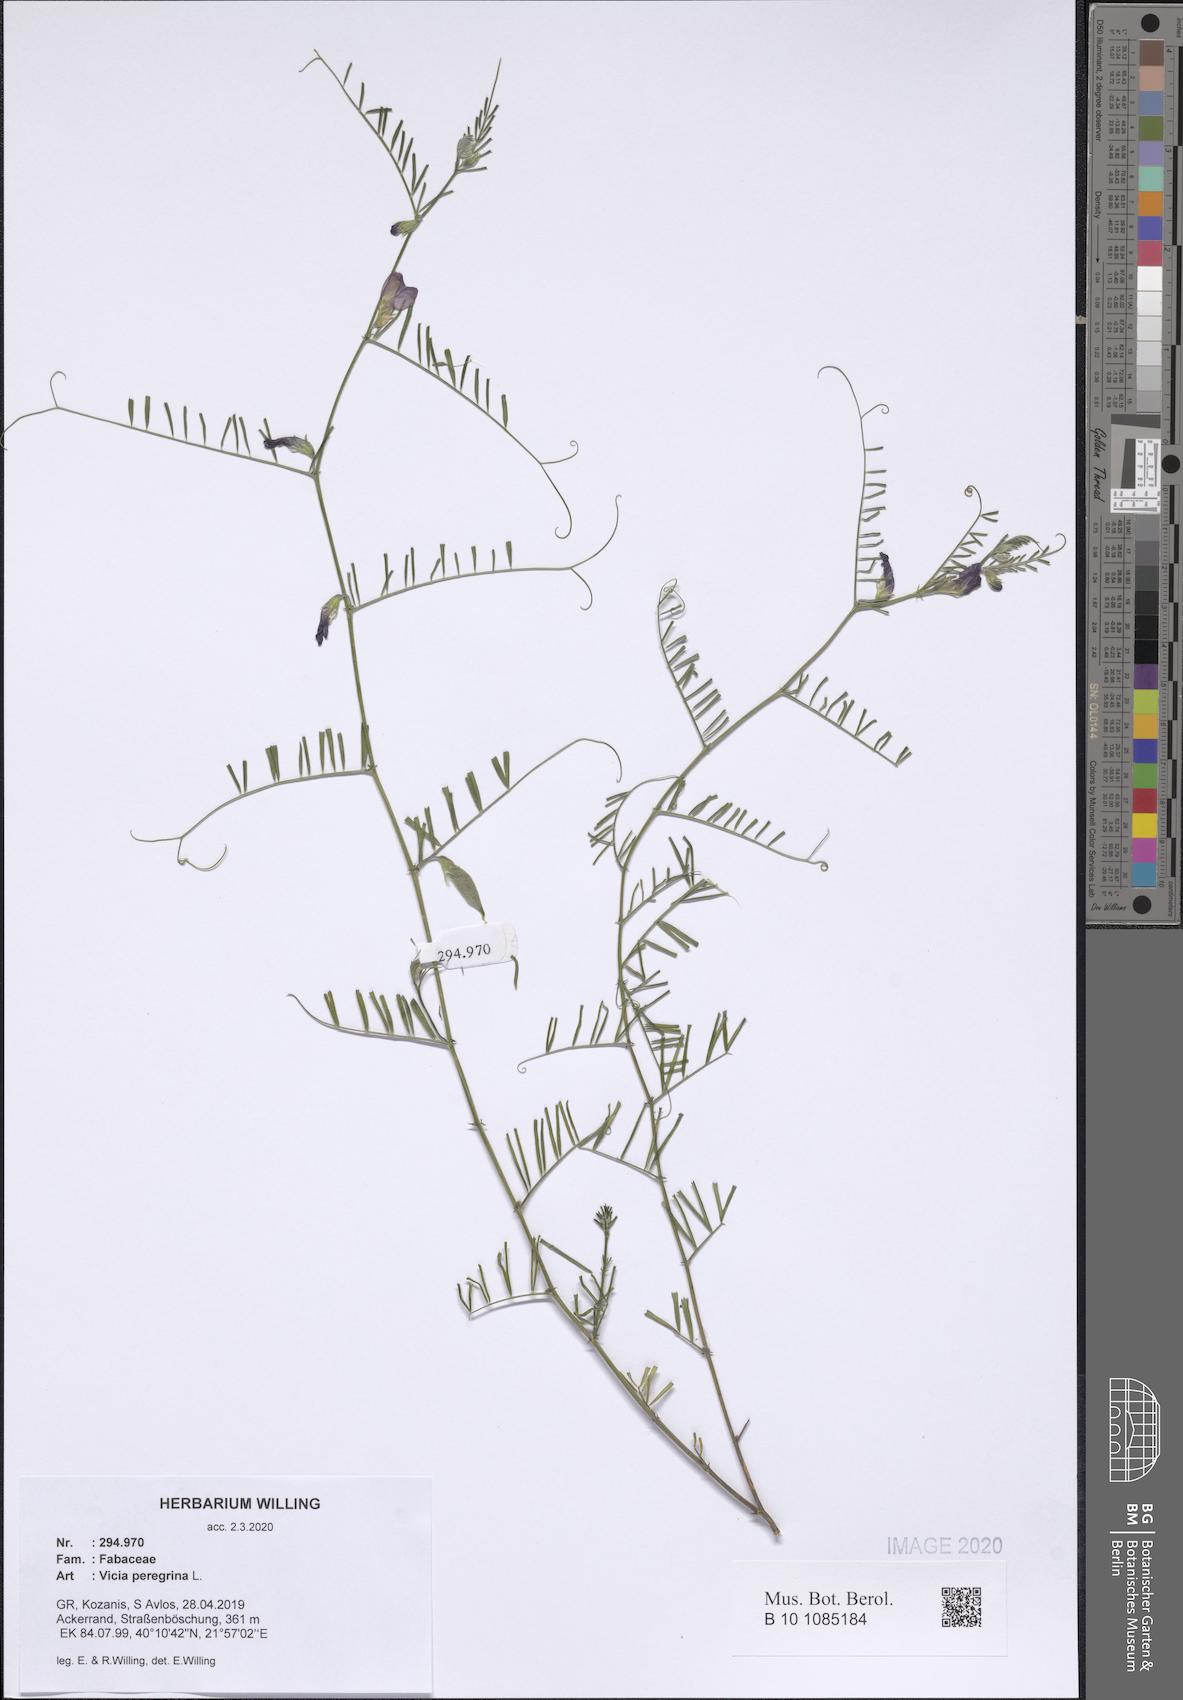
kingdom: Plantae
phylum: Tracheophyta
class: Magnoliopsida
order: Fabales
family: Fabaceae
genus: Vicia
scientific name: Vicia peregrina
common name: Broad-pod vetch
